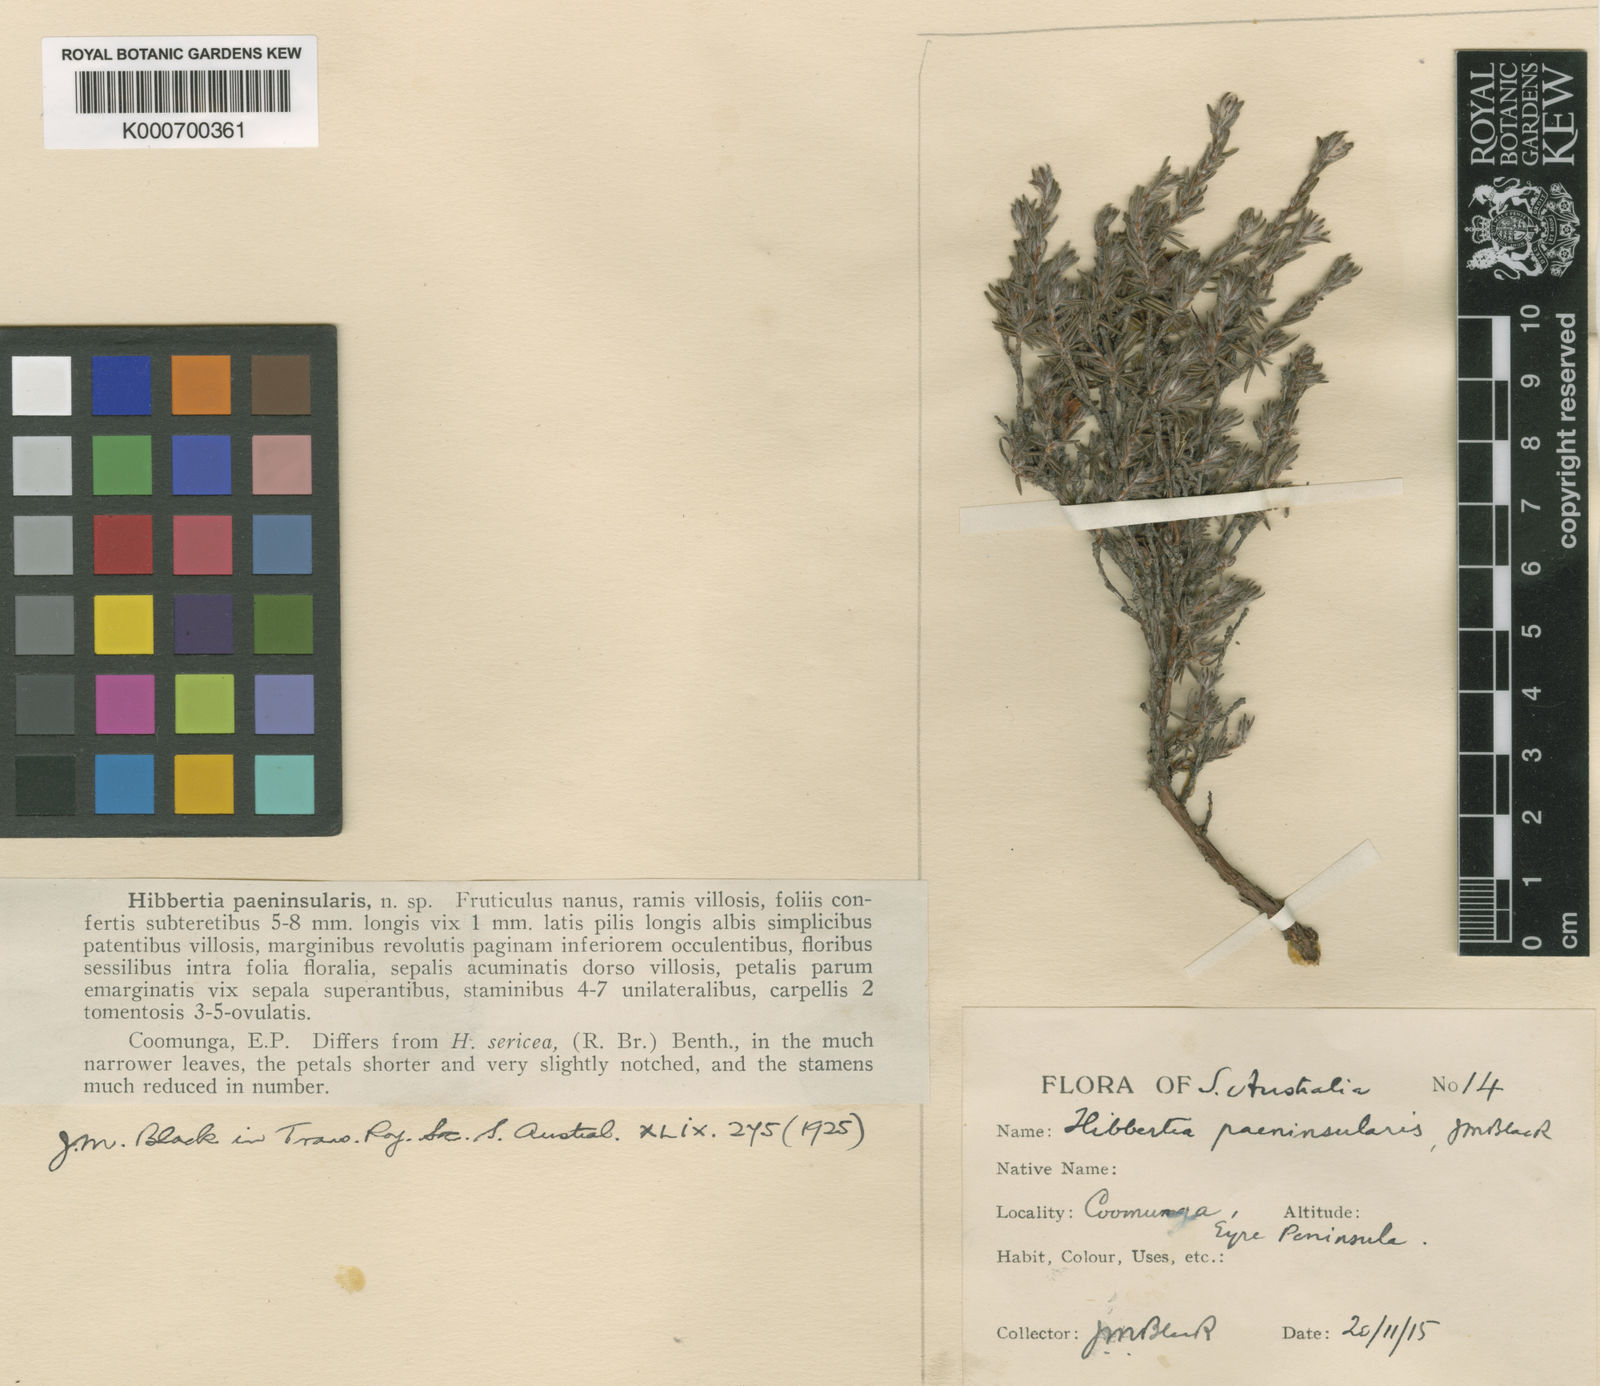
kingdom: Plantae
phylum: Tracheophyta
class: Magnoliopsida
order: Dilleniales
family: Dilleniaceae
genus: Hibbertia
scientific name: Hibbertia paeninsularis
